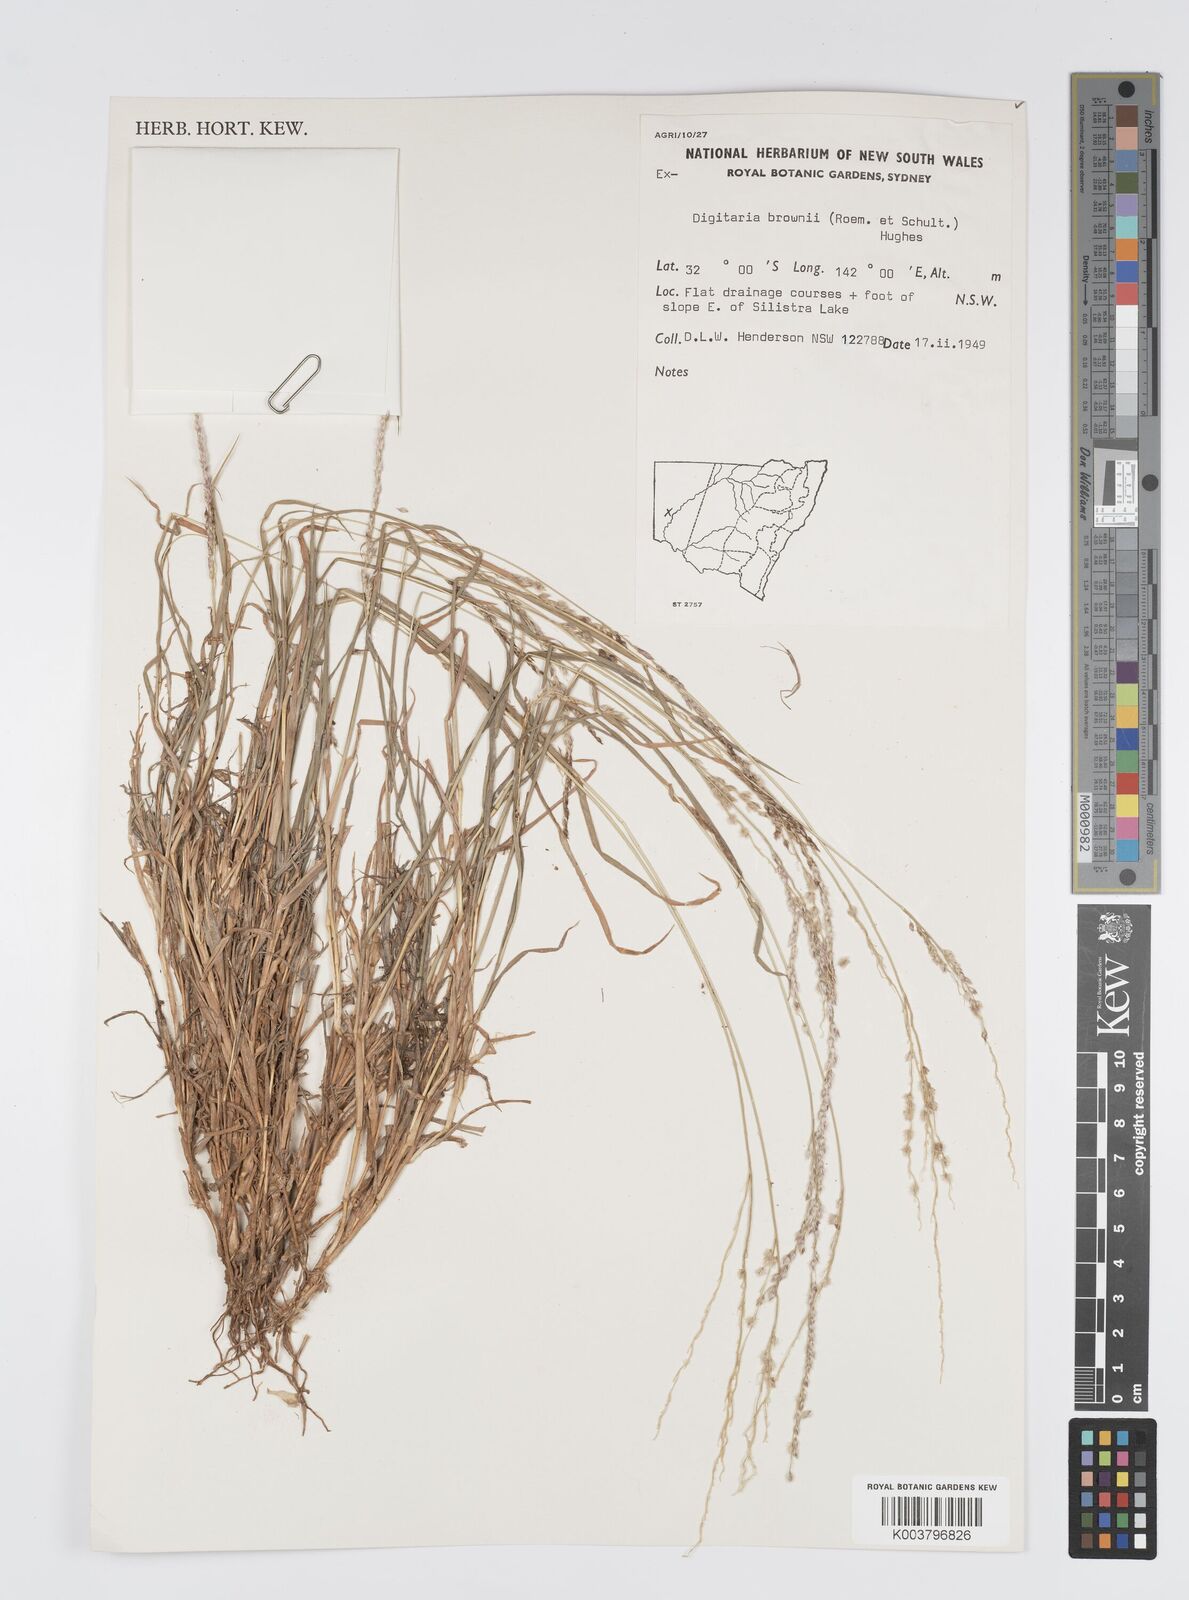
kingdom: Plantae
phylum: Tracheophyta
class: Liliopsida
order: Poales
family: Poaceae
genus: Digitaria
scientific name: Digitaria brownii
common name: Cotton grass
